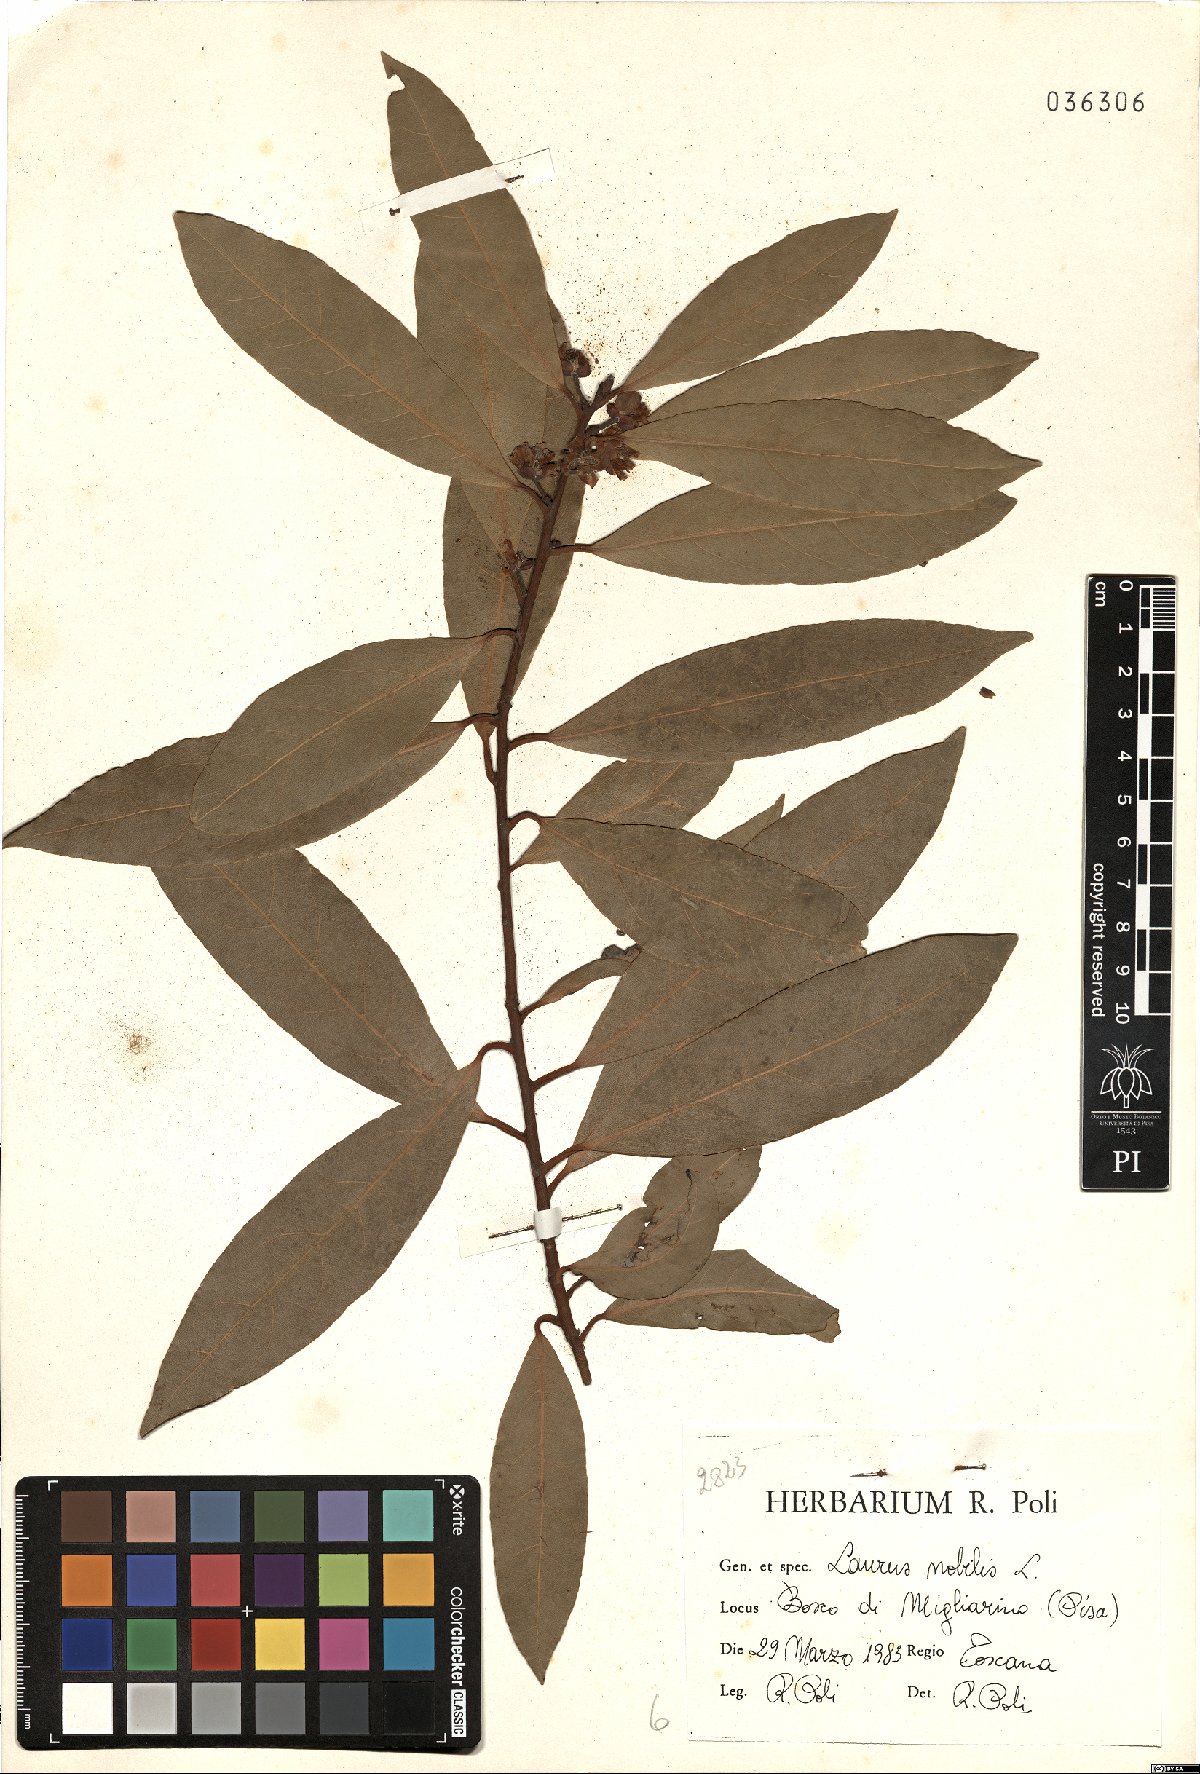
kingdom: Plantae
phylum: Tracheophyta
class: Magnoliopsida
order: Laurales
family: Lauraceae
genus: Laurus
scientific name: Laurus nobilis
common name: Bay
